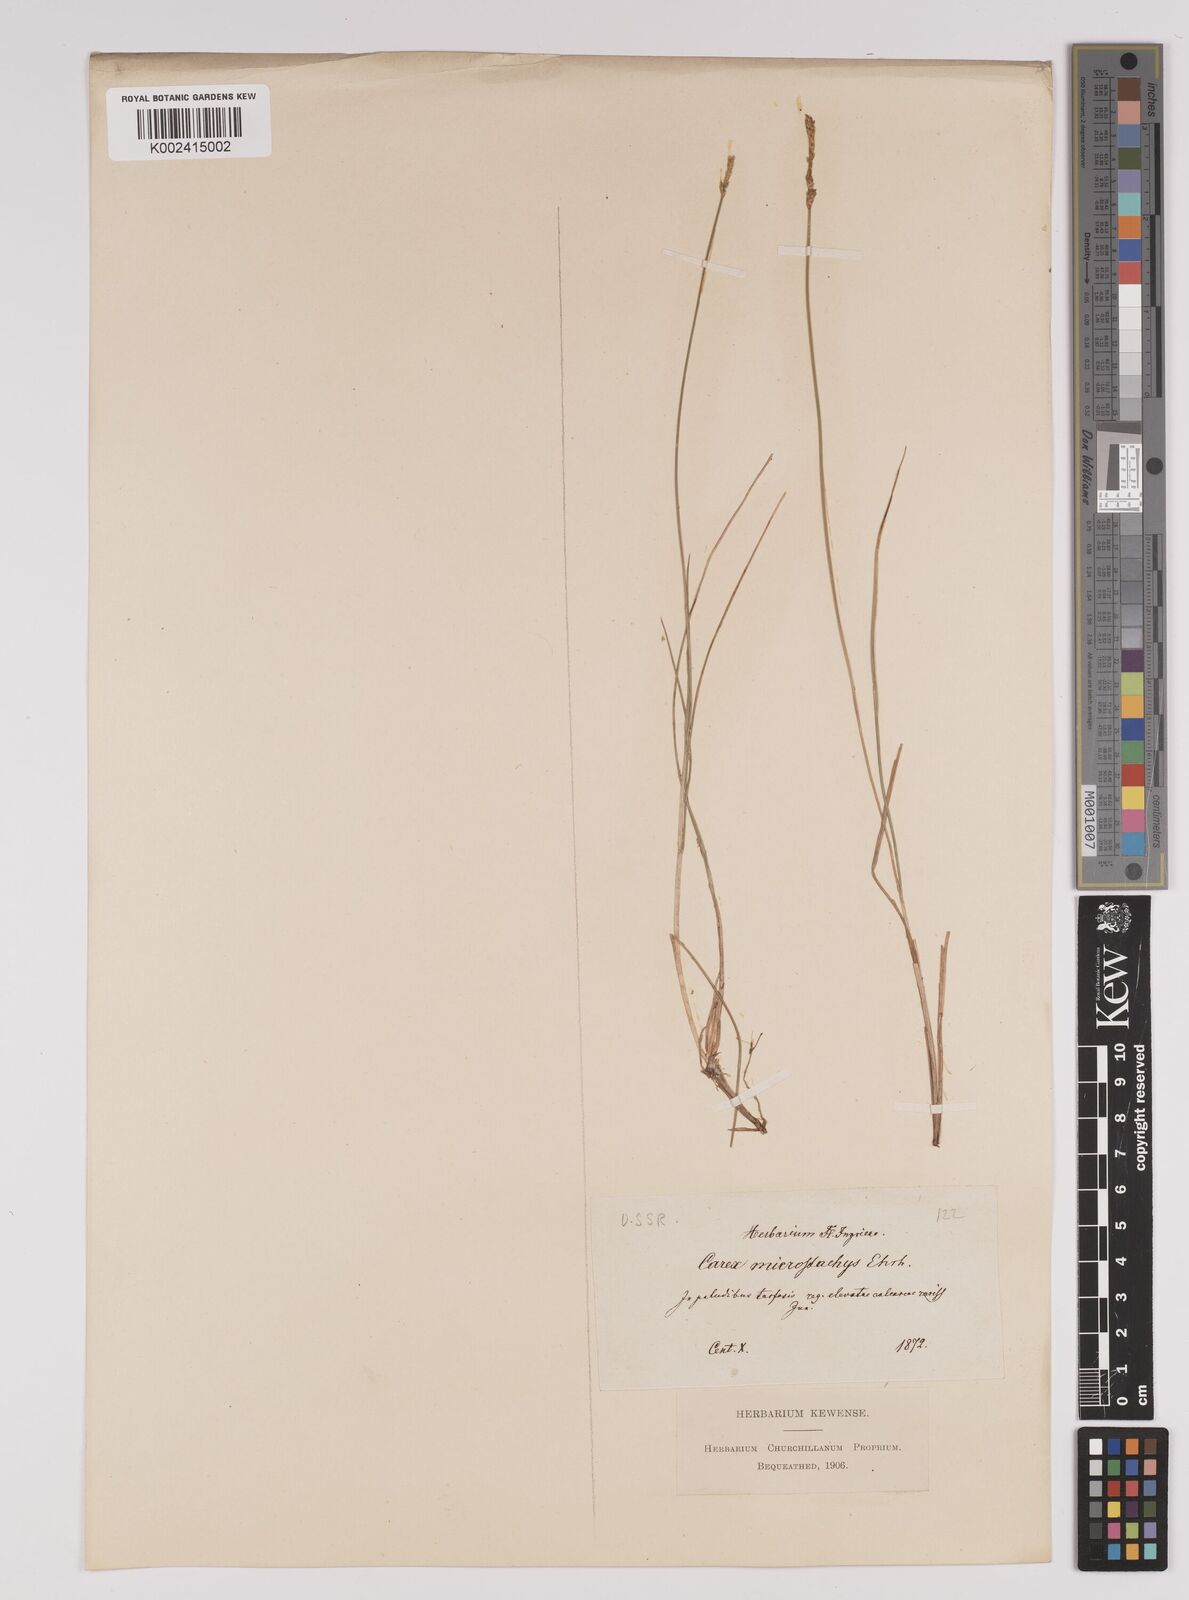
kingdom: Plantae
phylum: Tracheophyta
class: Liliopsida
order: Poales
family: Cyperaceae
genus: Carex
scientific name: Carex dioica
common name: Dioecious sedge
